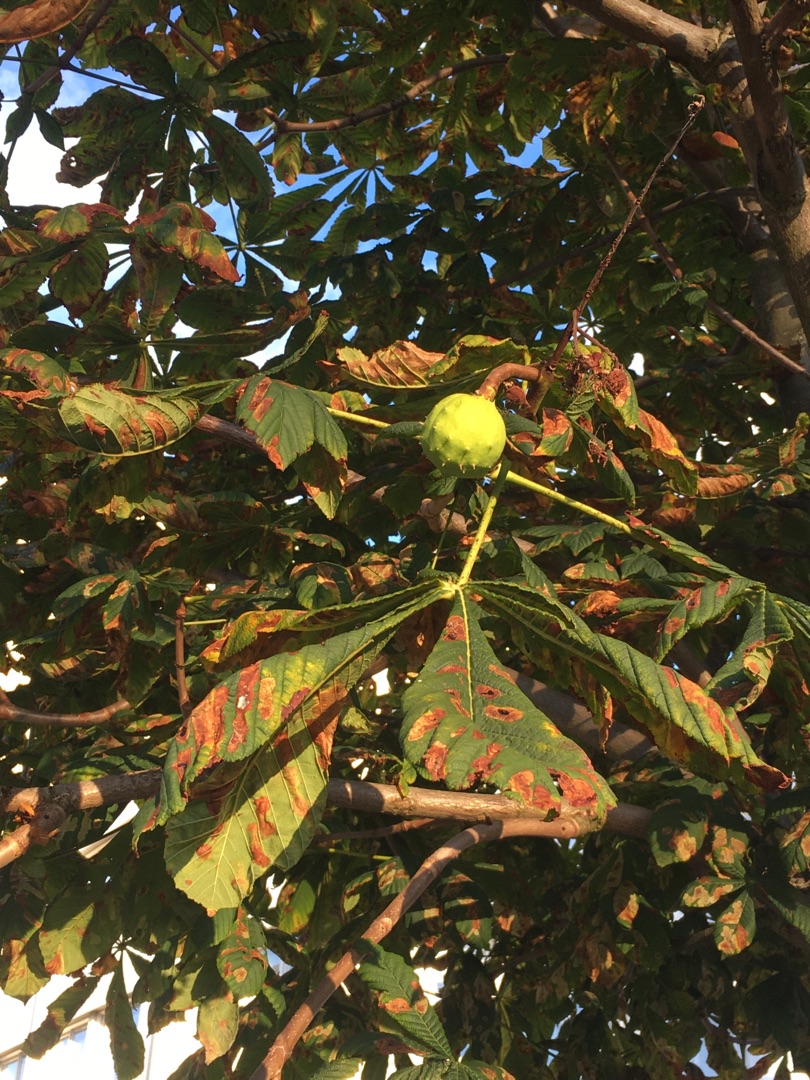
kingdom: Plantae
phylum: Tracheophyta
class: Magnoliopsida
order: Sapindales
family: Sapindaceae
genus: Aesculus
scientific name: Aesculus hippocastanum
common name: Hestekastanie
